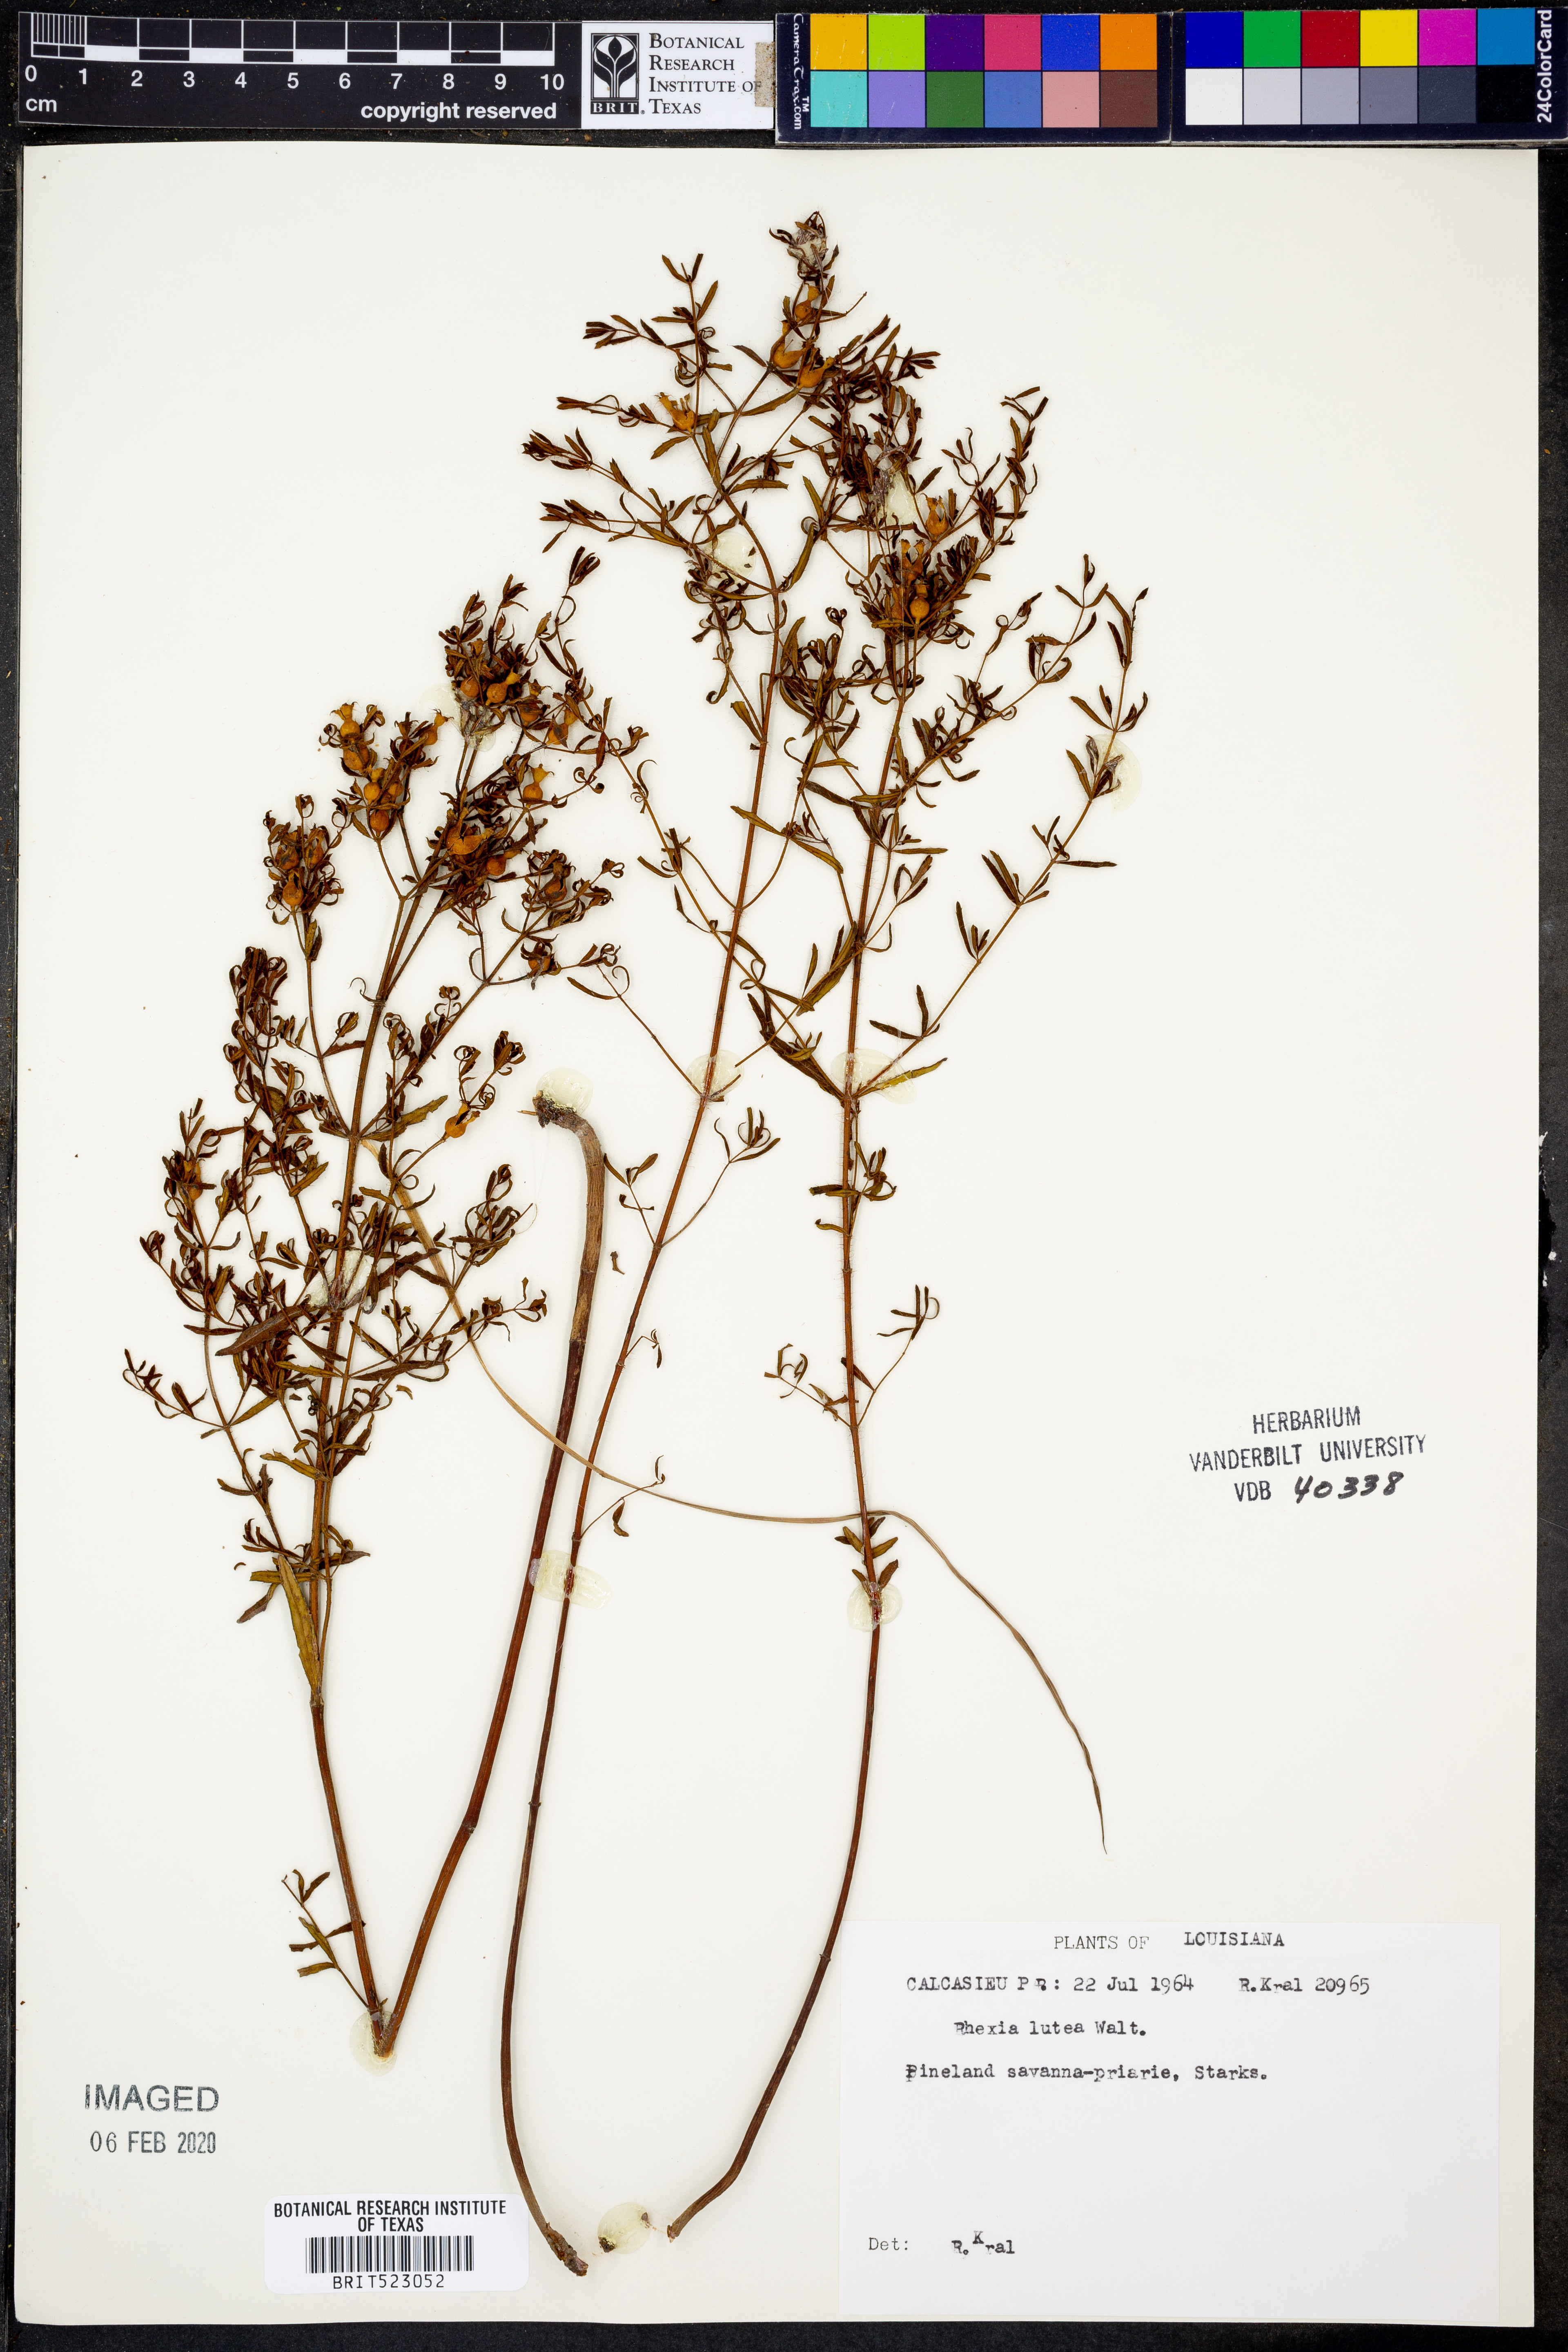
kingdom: Plantae
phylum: Tracheophyta
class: Magnoliopsida
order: Myrtales
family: Melastomataceae
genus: Rhexia
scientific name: Rhexia lutea
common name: Golden meadow-beauty
